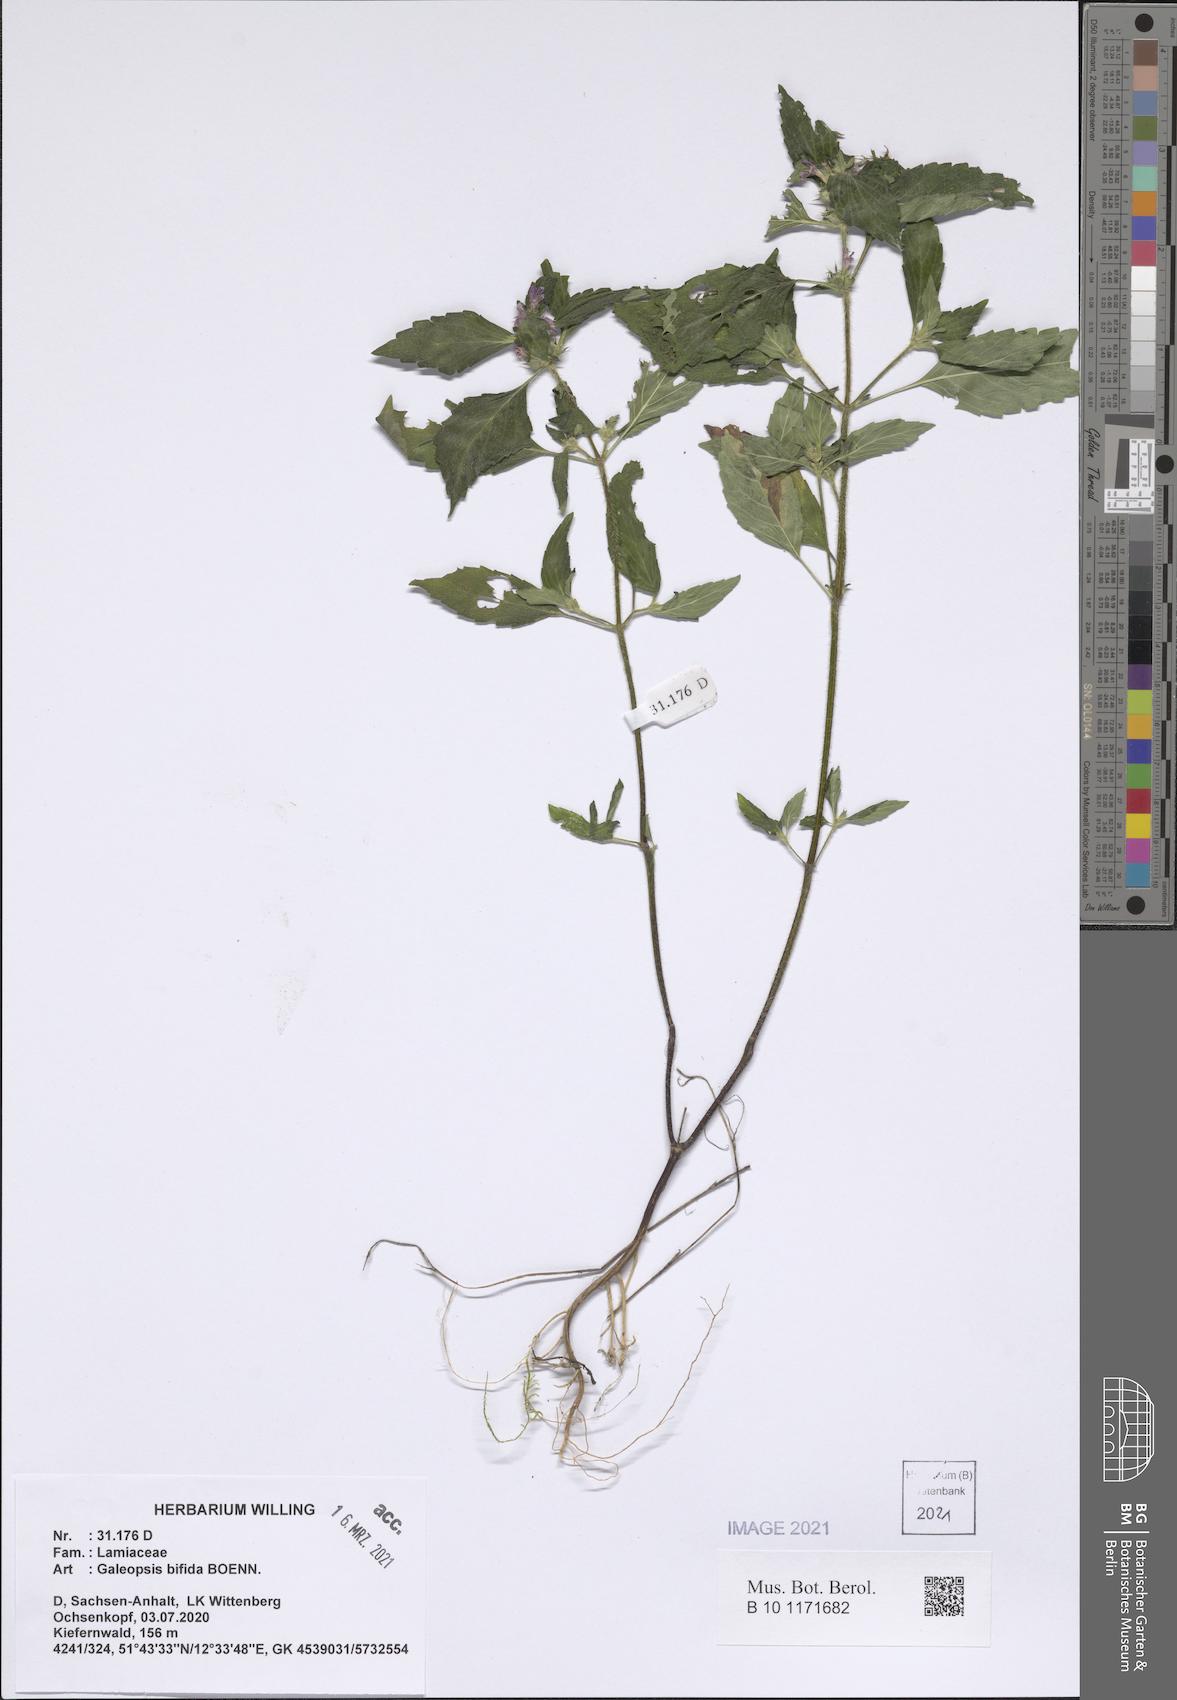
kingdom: Plantae
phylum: Tracheophyta
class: Magnoliopsida
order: Lamiales
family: Lamiaceae
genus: Galeopsis
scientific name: Galeopsis bifida
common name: Bifid hemp-nettle
